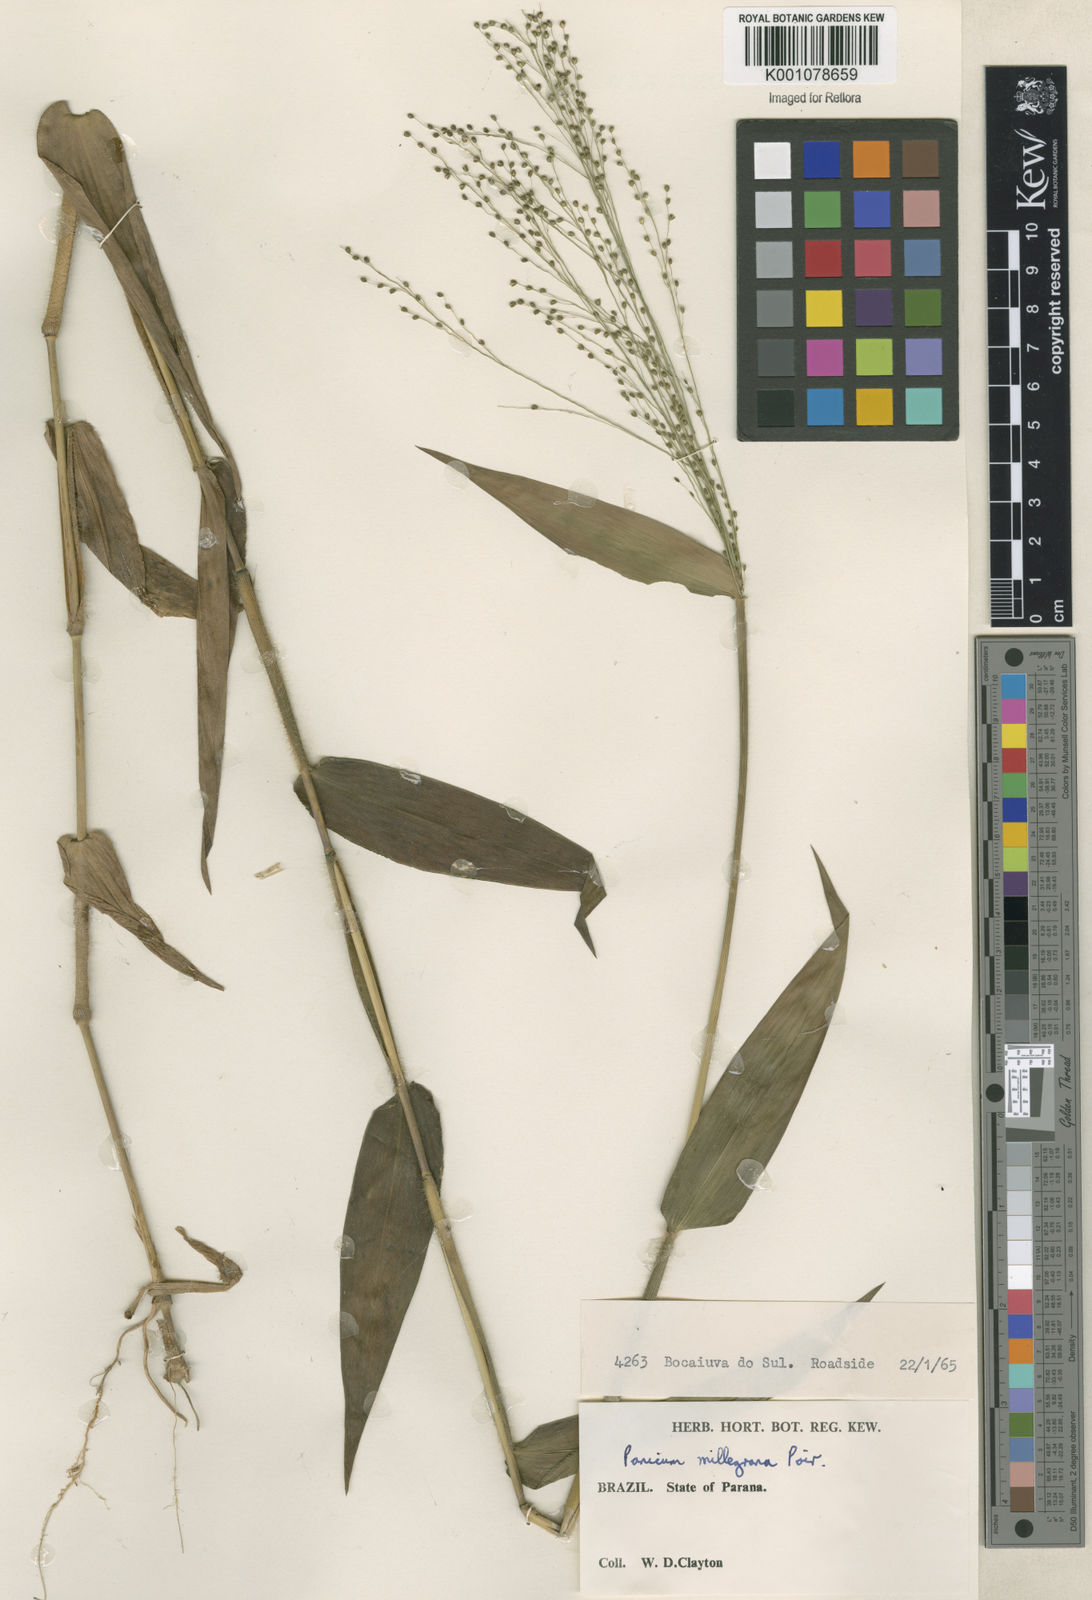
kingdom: Plantae
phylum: Tracheophyta
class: Liliopsida
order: Poales
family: Poaceae
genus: Panicum
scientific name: Panicum millegrana
